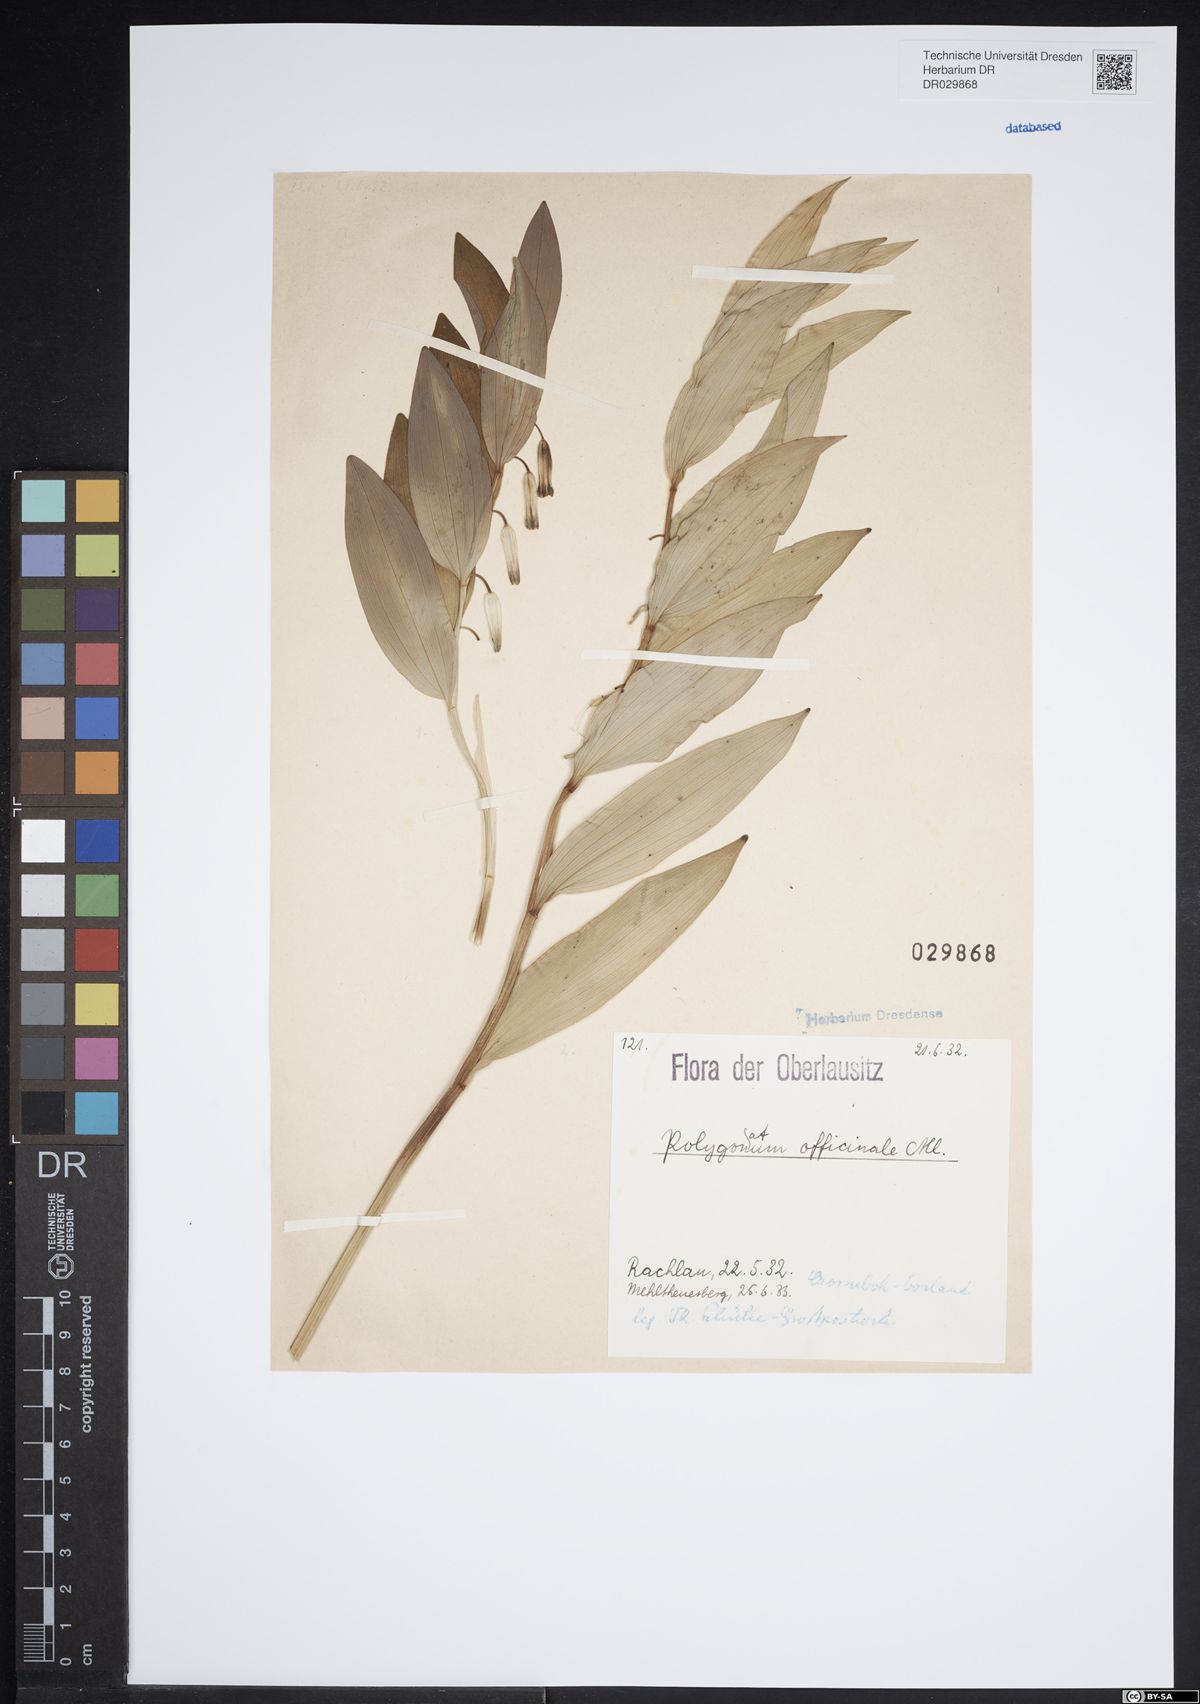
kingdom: Plantae
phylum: Tracheophyta
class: Liliopsida
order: Asparagales
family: Asparagaceae
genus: Polygonatum
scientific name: Polygonatum odoratum
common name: Angular solomon's-seal
